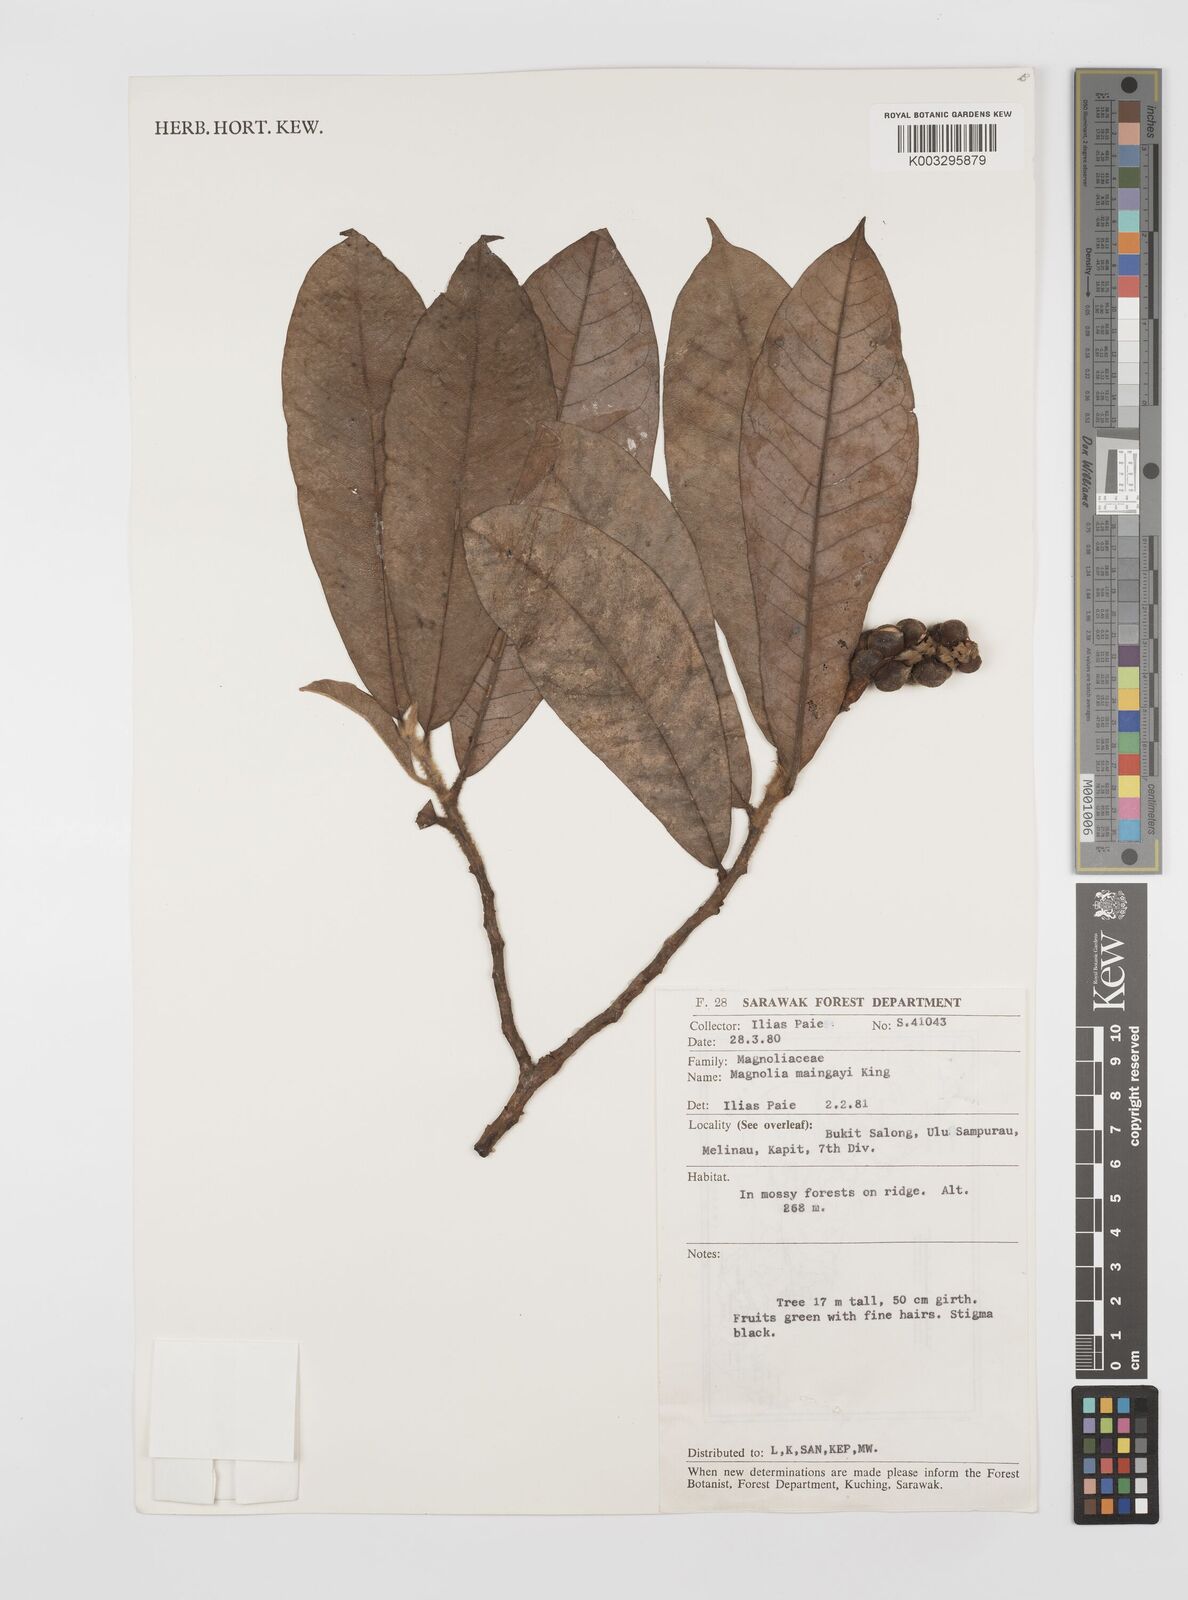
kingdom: Plantae
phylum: Tracheophyta
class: Magnoliopsida
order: Magnoliales
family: Magnoliaceae
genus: Magnolia
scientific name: Magnolia macklottii
